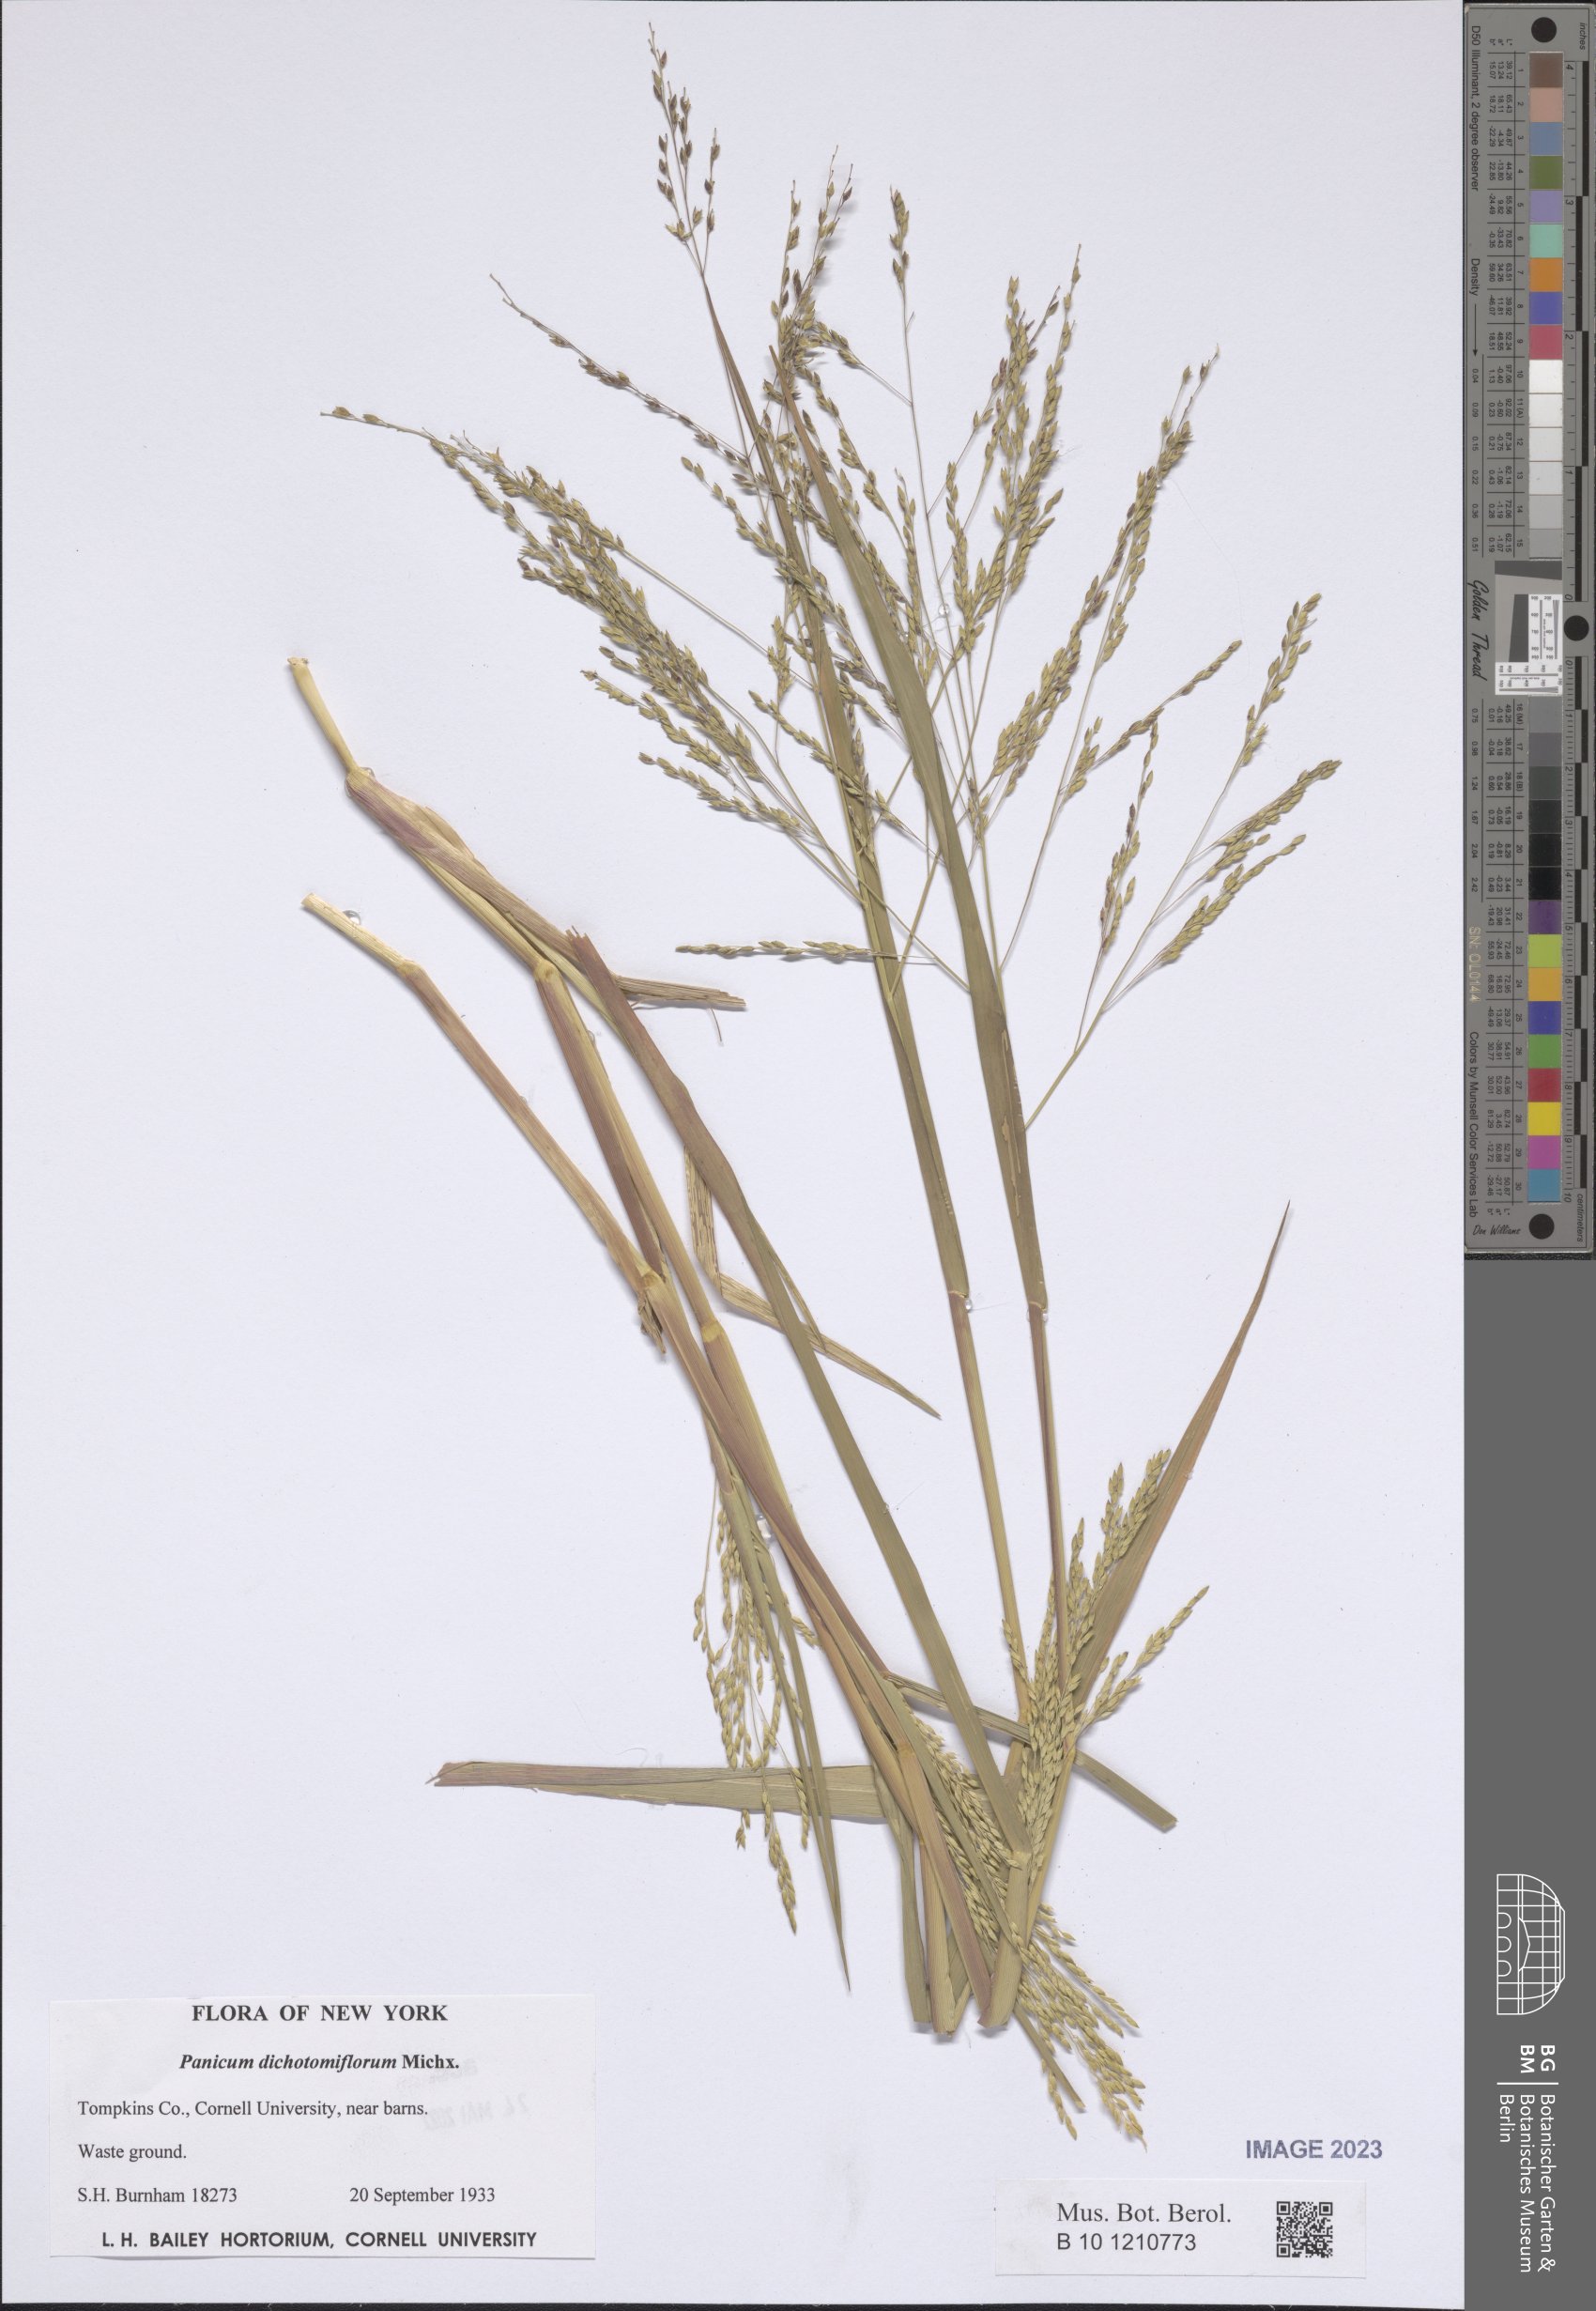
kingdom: Plantae
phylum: Tracheophyta
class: Liliopsida
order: Poales
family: Poaceae
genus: Panicum
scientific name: Panicum dichotomiflorum
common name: Autumn millet
